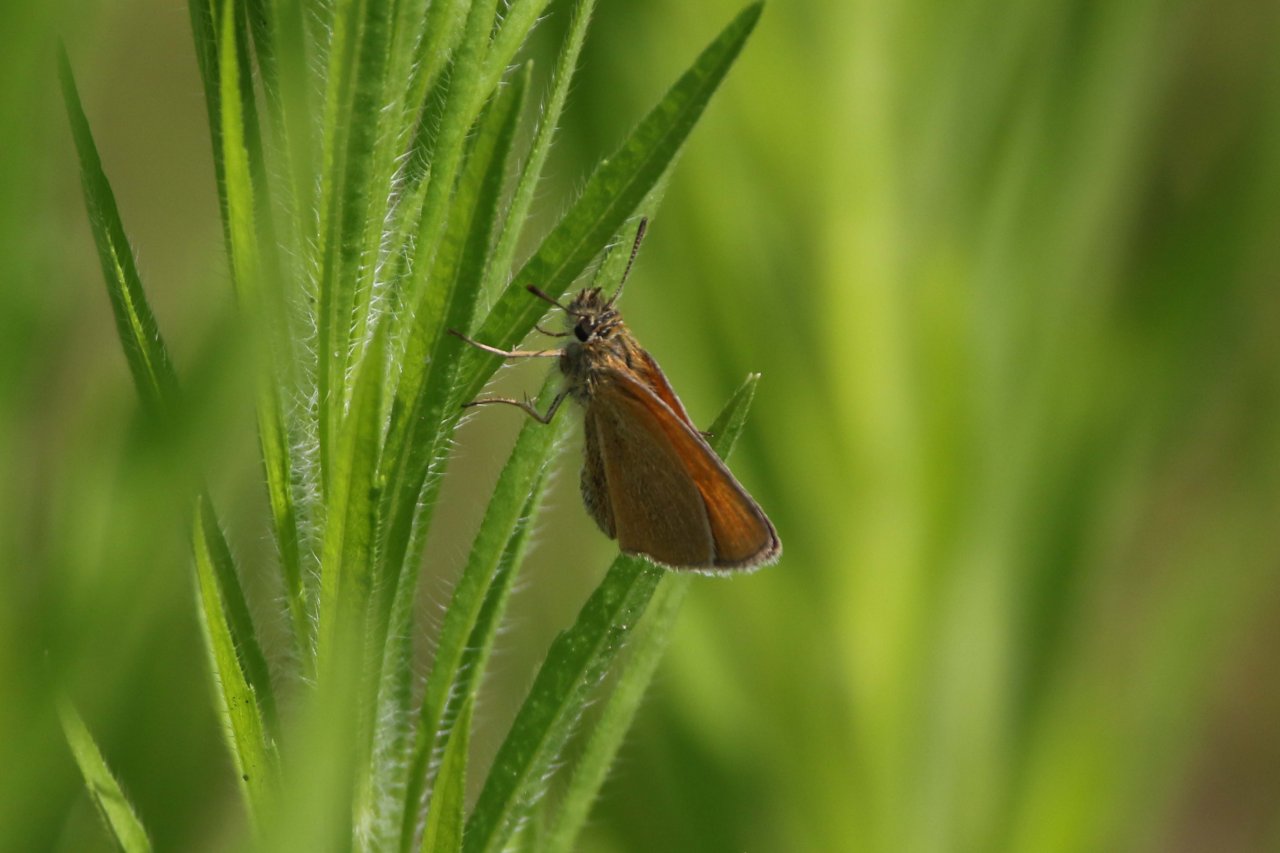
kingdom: Animalia
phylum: Arthropoda
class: Insecta
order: Lepidoptera
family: Hesperiidae
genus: Thymelicus
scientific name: Thymelicus lineola
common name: European Skipper
